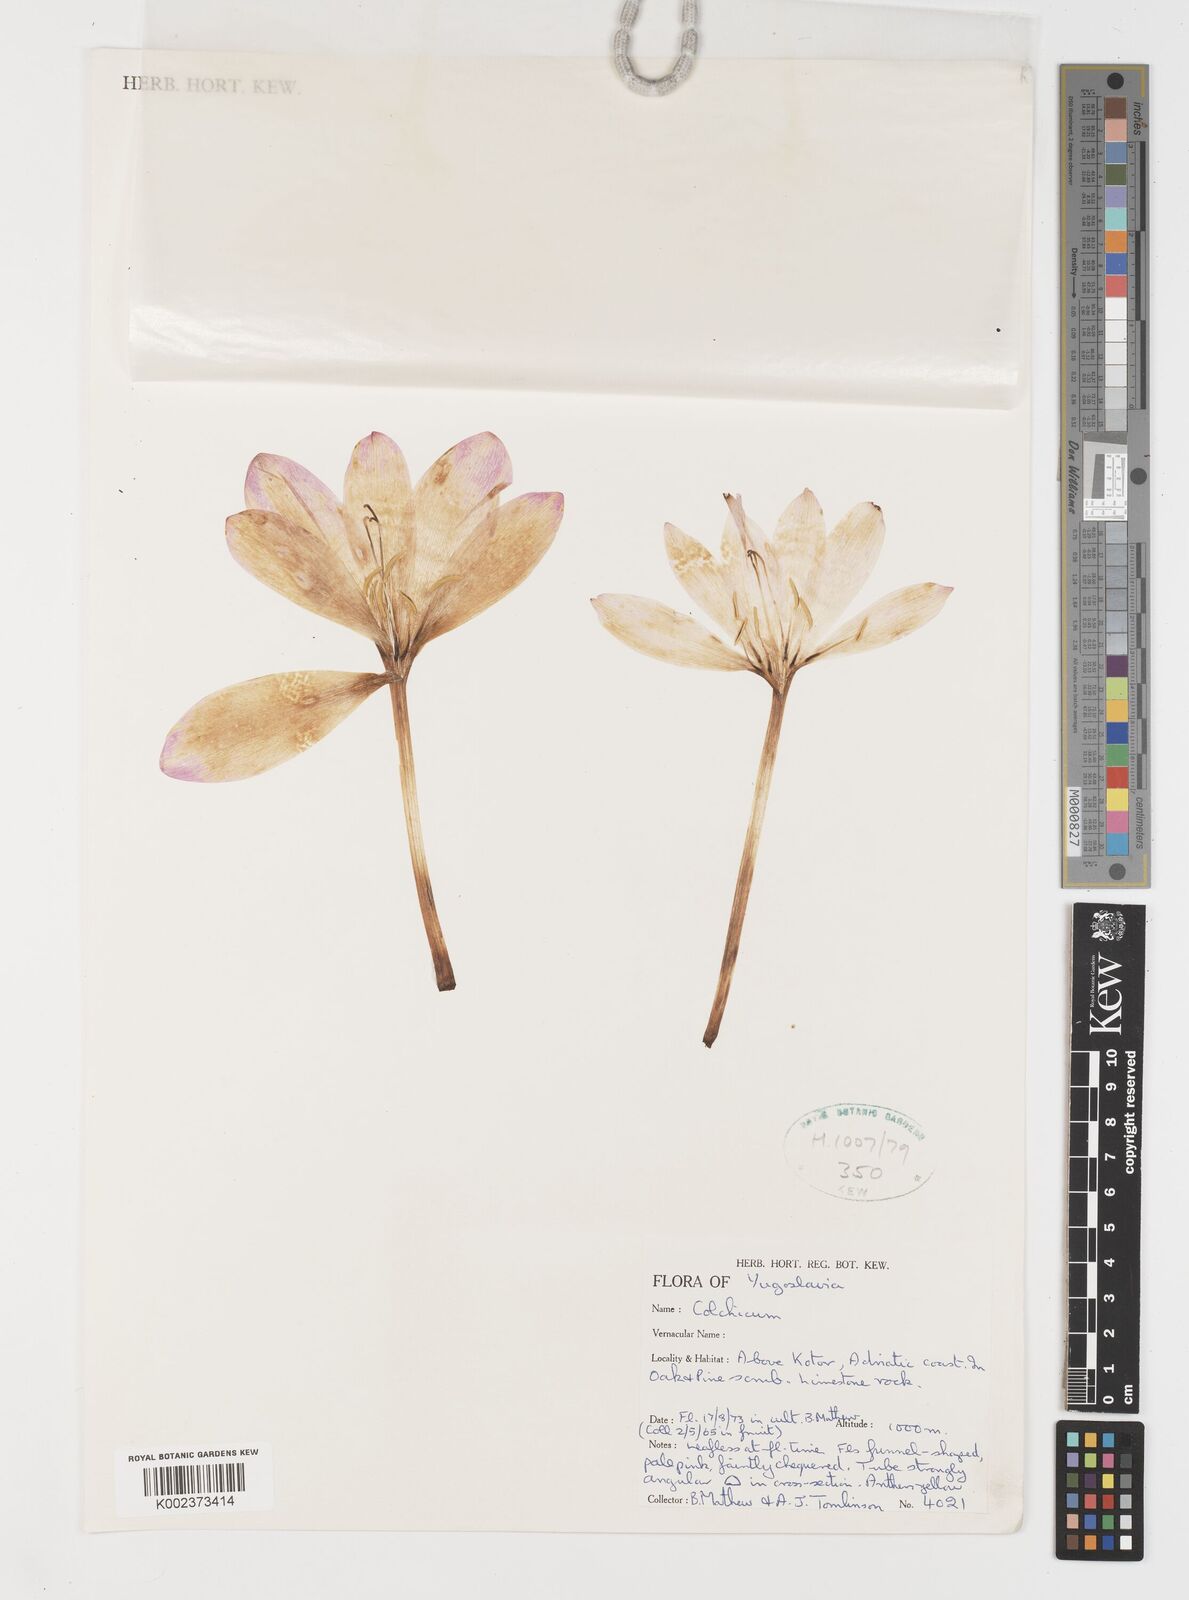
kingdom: Plantae
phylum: Tracheophyta
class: Liliopsida
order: Liliales
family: Colchicaceae
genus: Colchicum
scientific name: Colchicum
